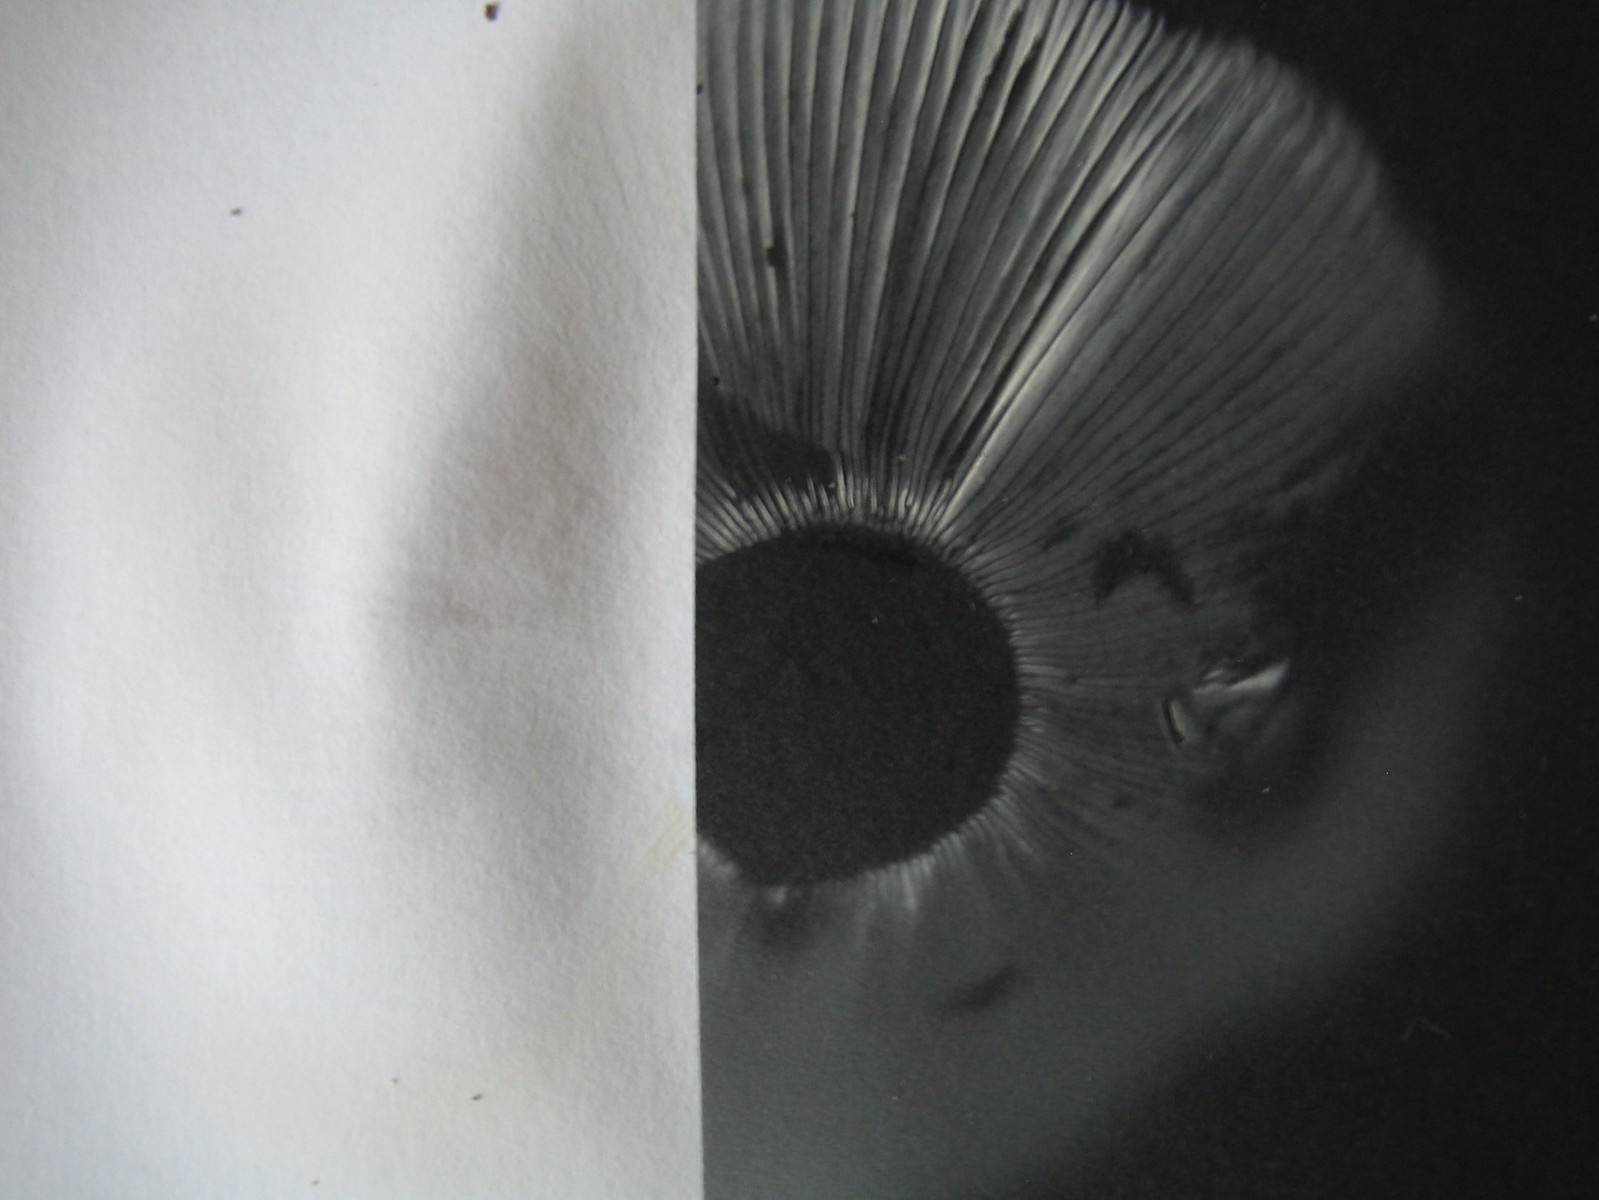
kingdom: Fungi
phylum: Basidiomycota
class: Agaricomycetes
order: Russulales
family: Russulaceae
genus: Russula
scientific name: Russula
